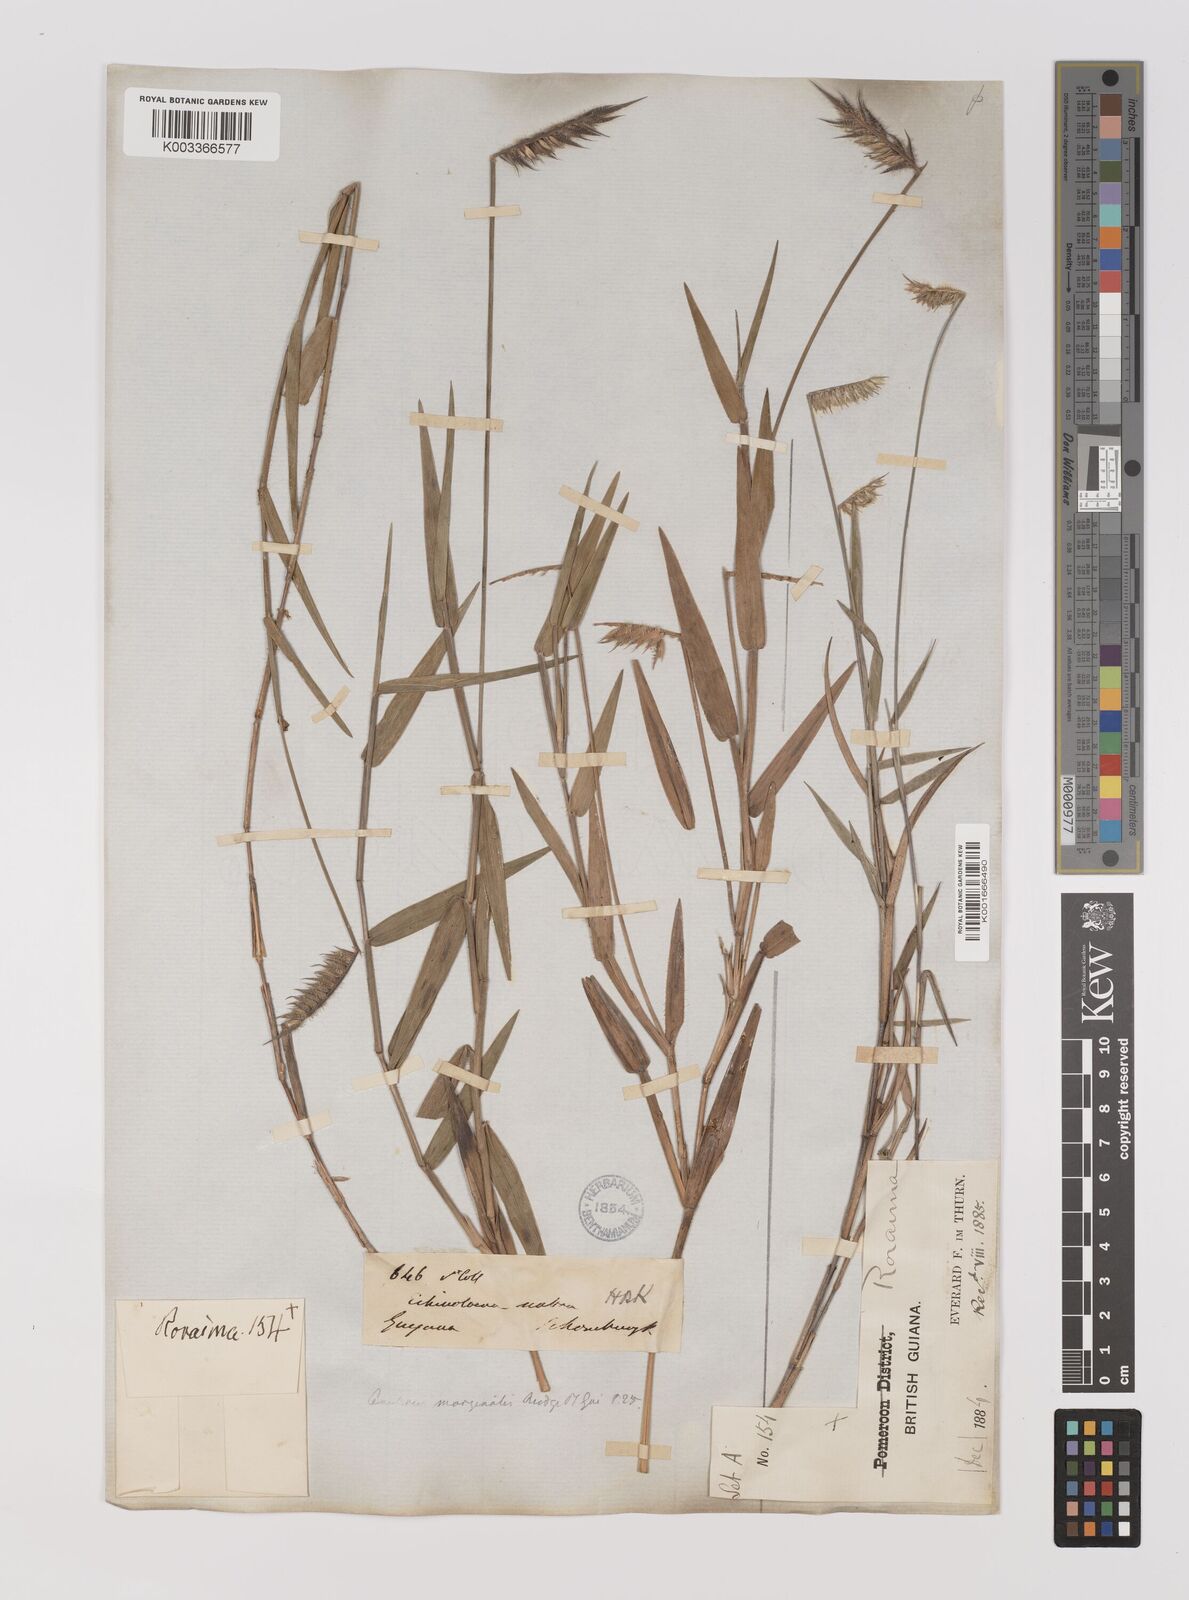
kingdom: Plantae
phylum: Tracheophyta
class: Liliopsida
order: Poales
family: Poaceae
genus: Echinolaena
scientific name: Echinolaena inflexa
